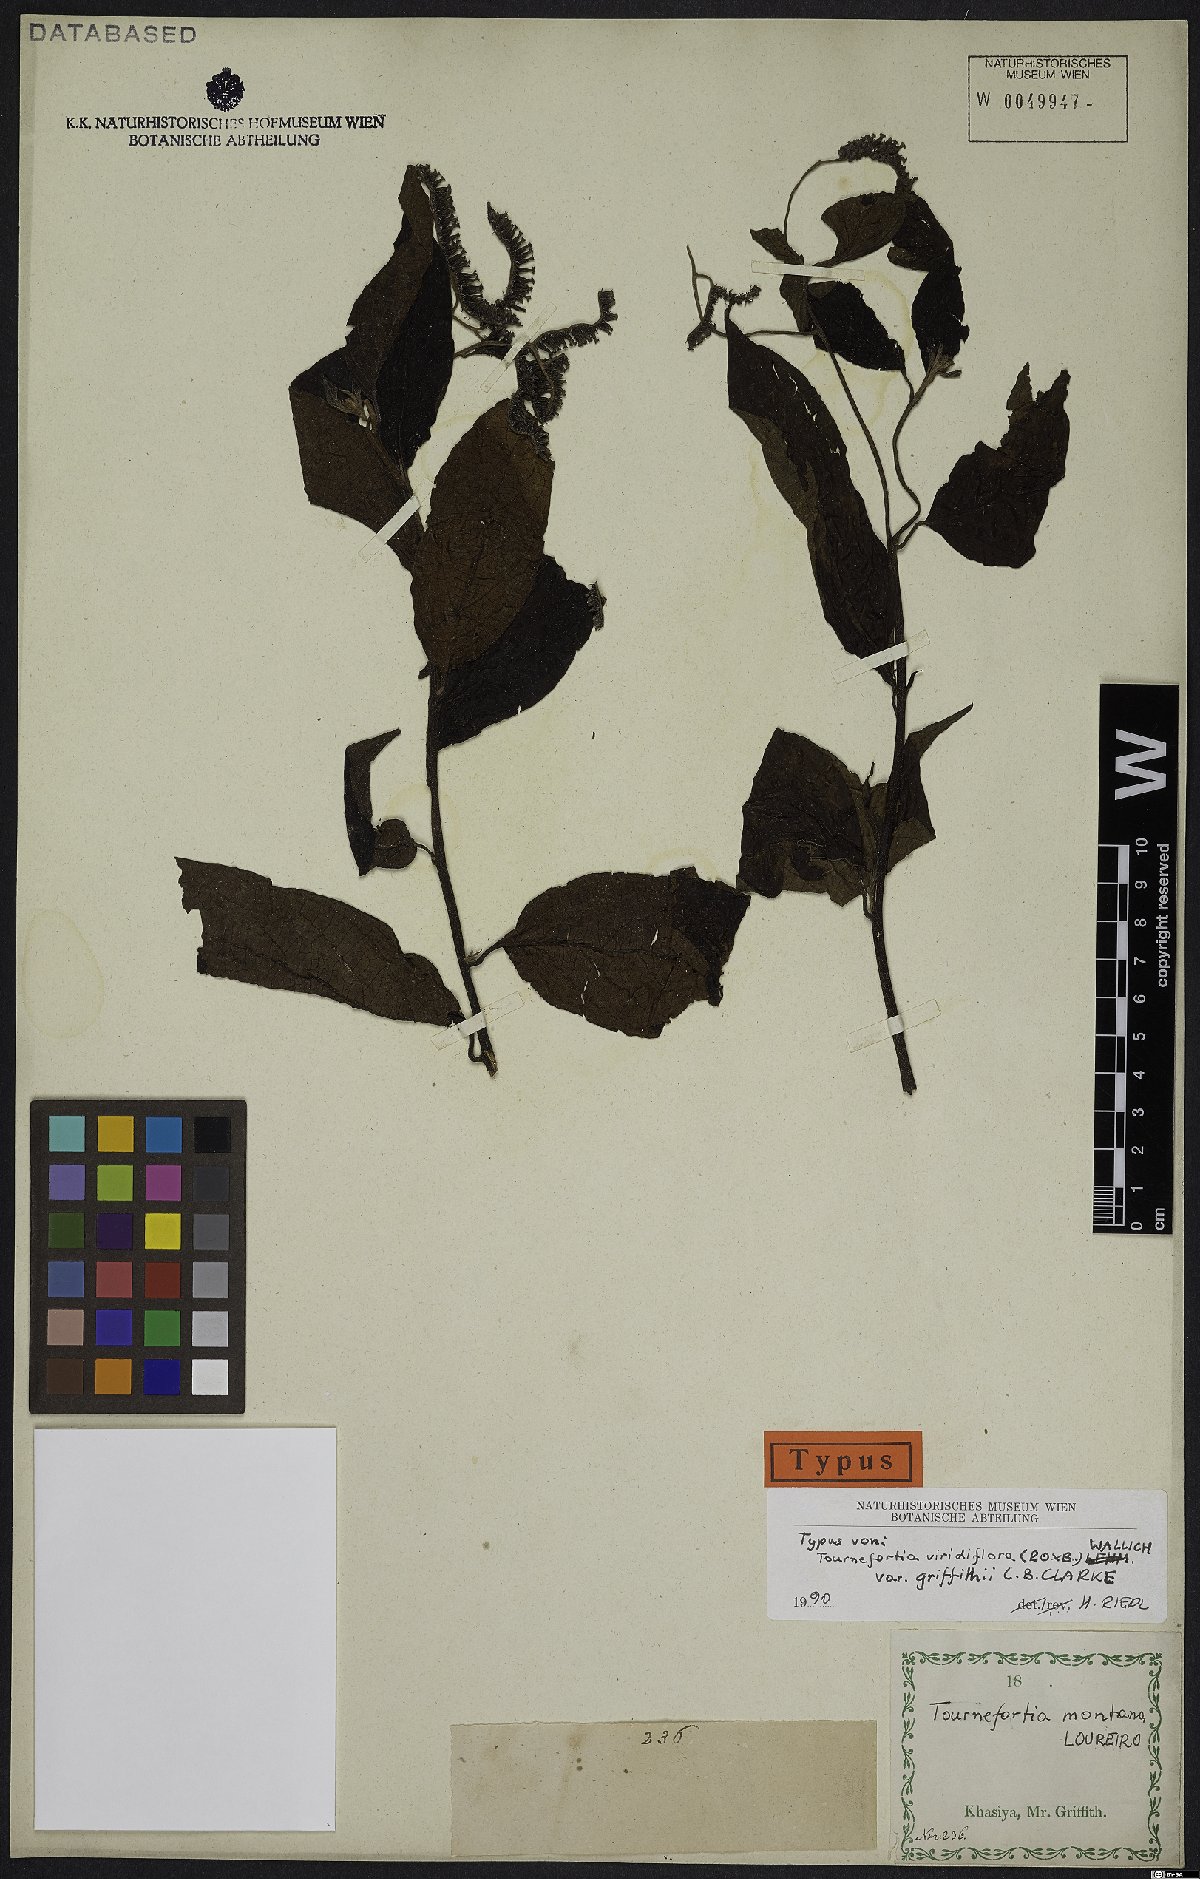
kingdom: Plantae
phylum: Tracheophyta
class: Magnoliopsida
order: Boraginales
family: Heliotropiaceae
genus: Tournefortia
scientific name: Tournefortia montana
